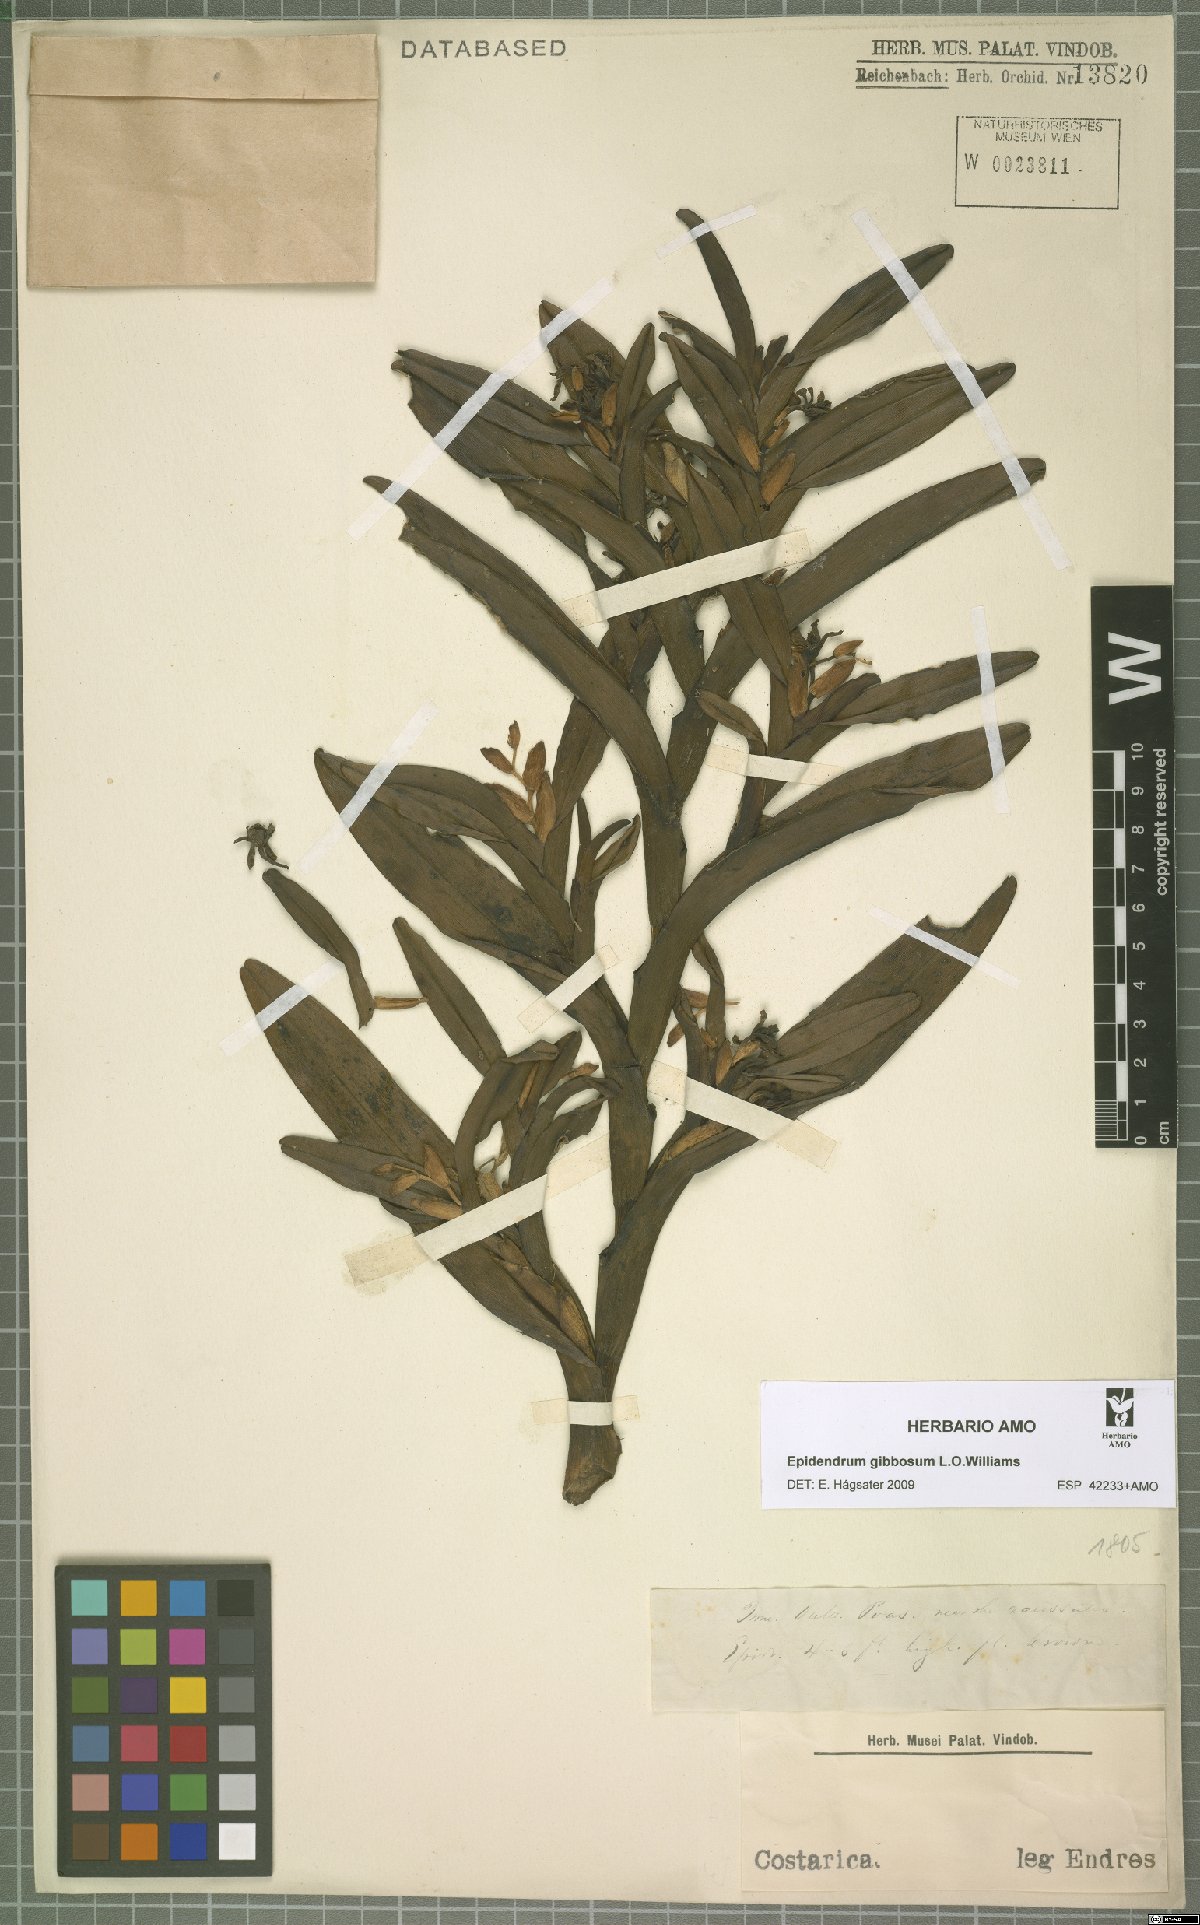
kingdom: Plantae
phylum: Tracheophyta
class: Liliopsida
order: Asparagales
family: Orchidaceae
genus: Epidendrum
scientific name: Epidendrum gibbosum
